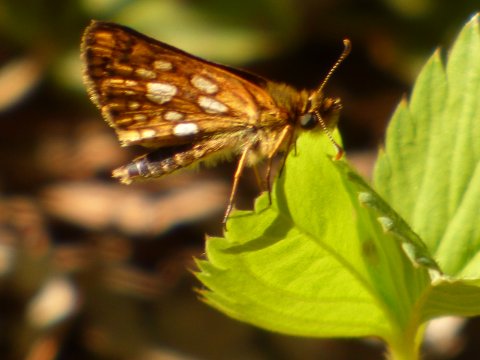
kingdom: Animalia
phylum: Arthropoda
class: Insecta
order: Lepidoptera
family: Hesperiidae
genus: Carterocephalus
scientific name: Carterocephalus palaemon
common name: Chequered Skipper
